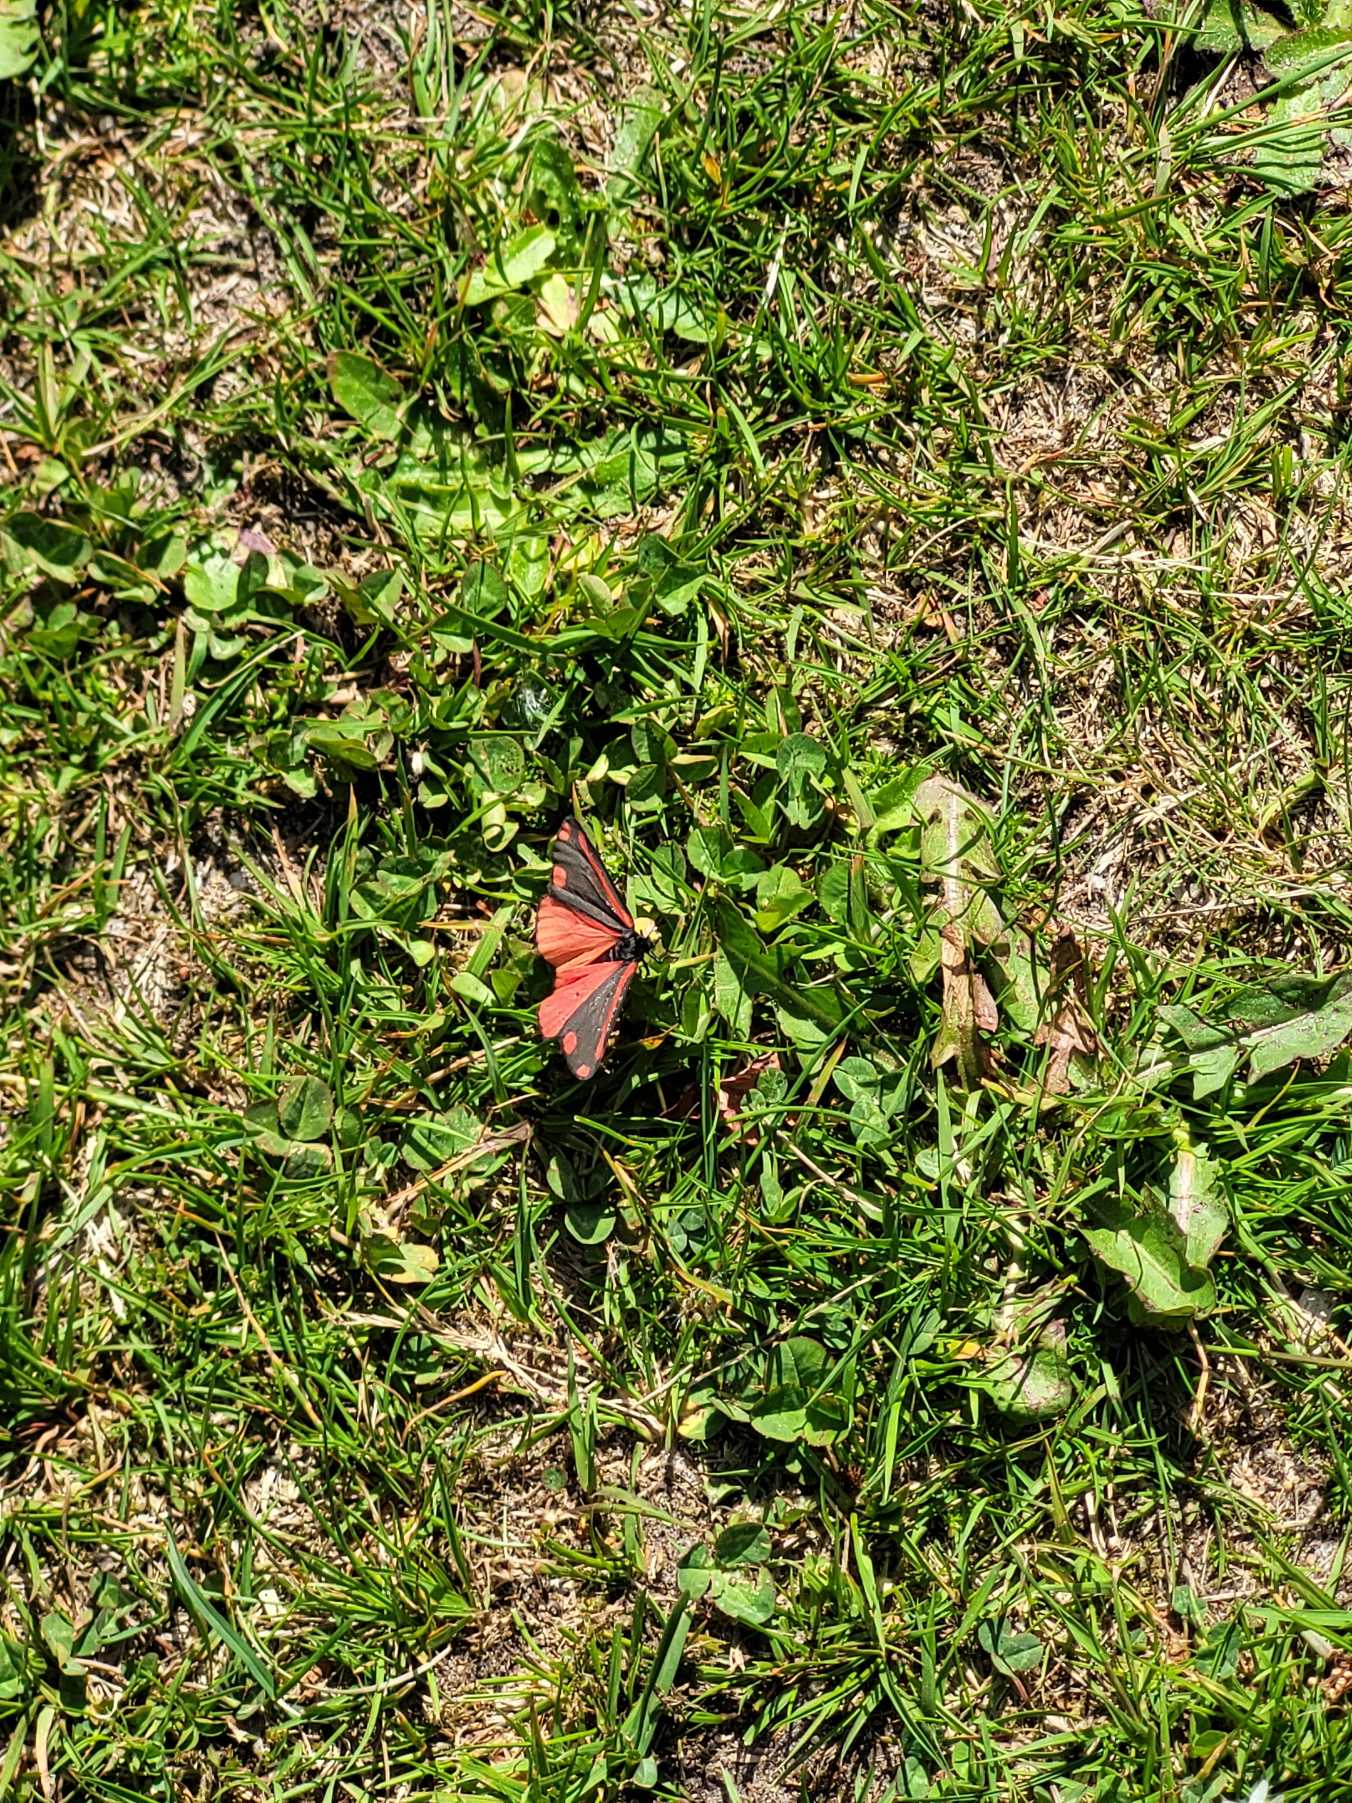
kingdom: Animalia
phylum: Arthropoda
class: Insecta
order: Lepidoptera
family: Erebidae
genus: Tyria
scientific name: Tyria jacobaeae
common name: Blodplet
